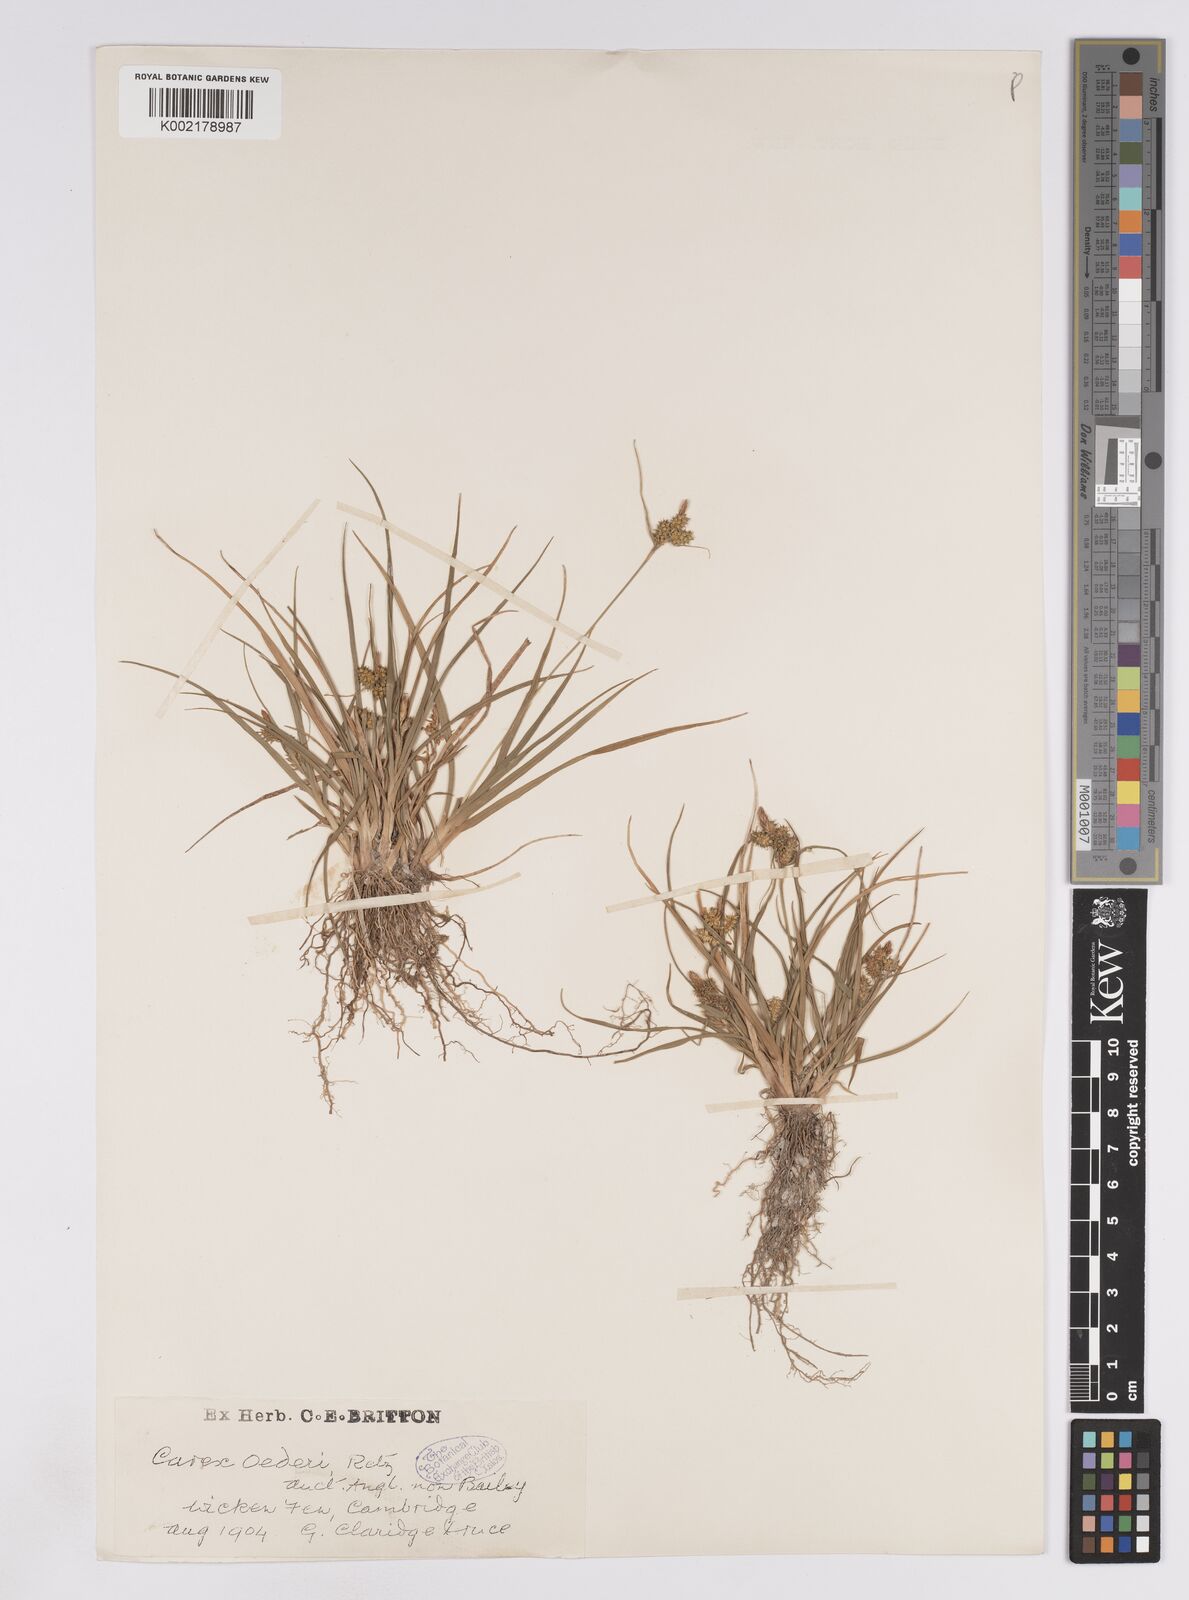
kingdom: Plantae
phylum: Tracheophyta
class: Liliopsida
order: Poales
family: Cyperaceae
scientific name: Cyperaceae
